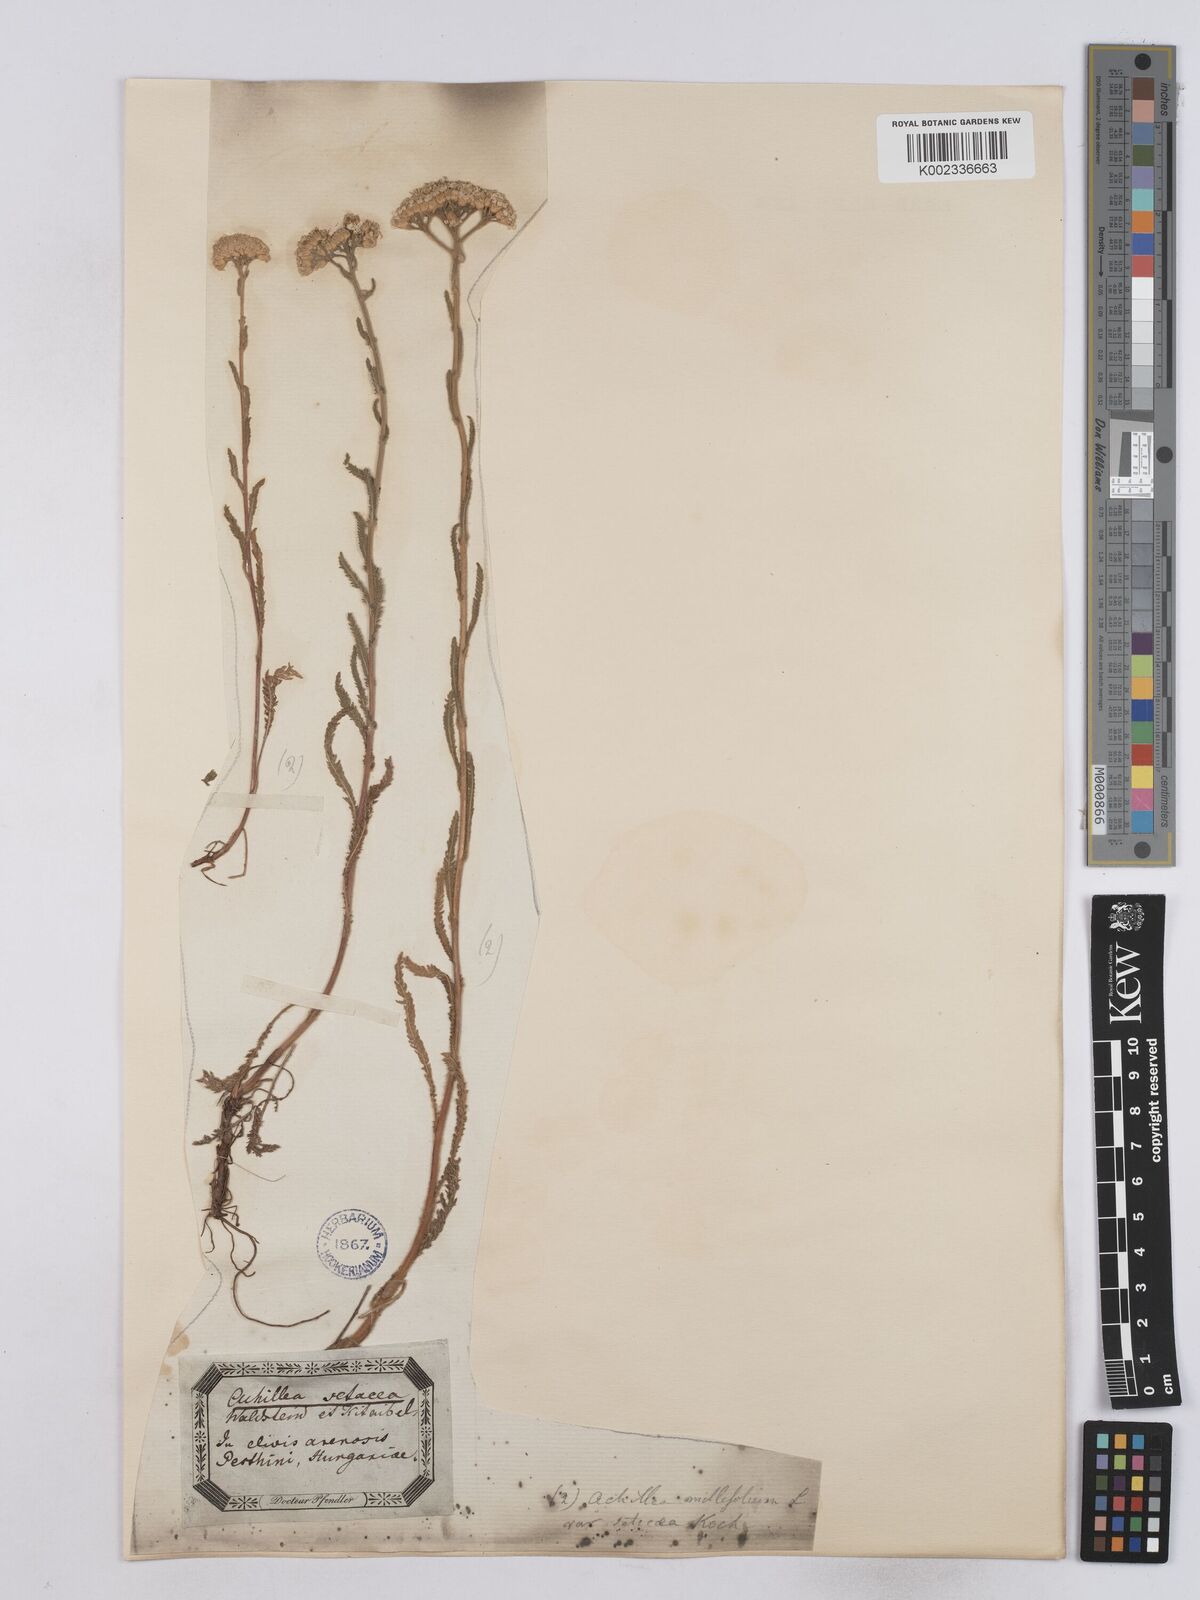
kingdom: Plantae
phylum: Tracheophyta
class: Magnoliopsida
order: Asterales
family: Asteraceae
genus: Achillea
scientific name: Achillea setacea
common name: Bristly yarrow
